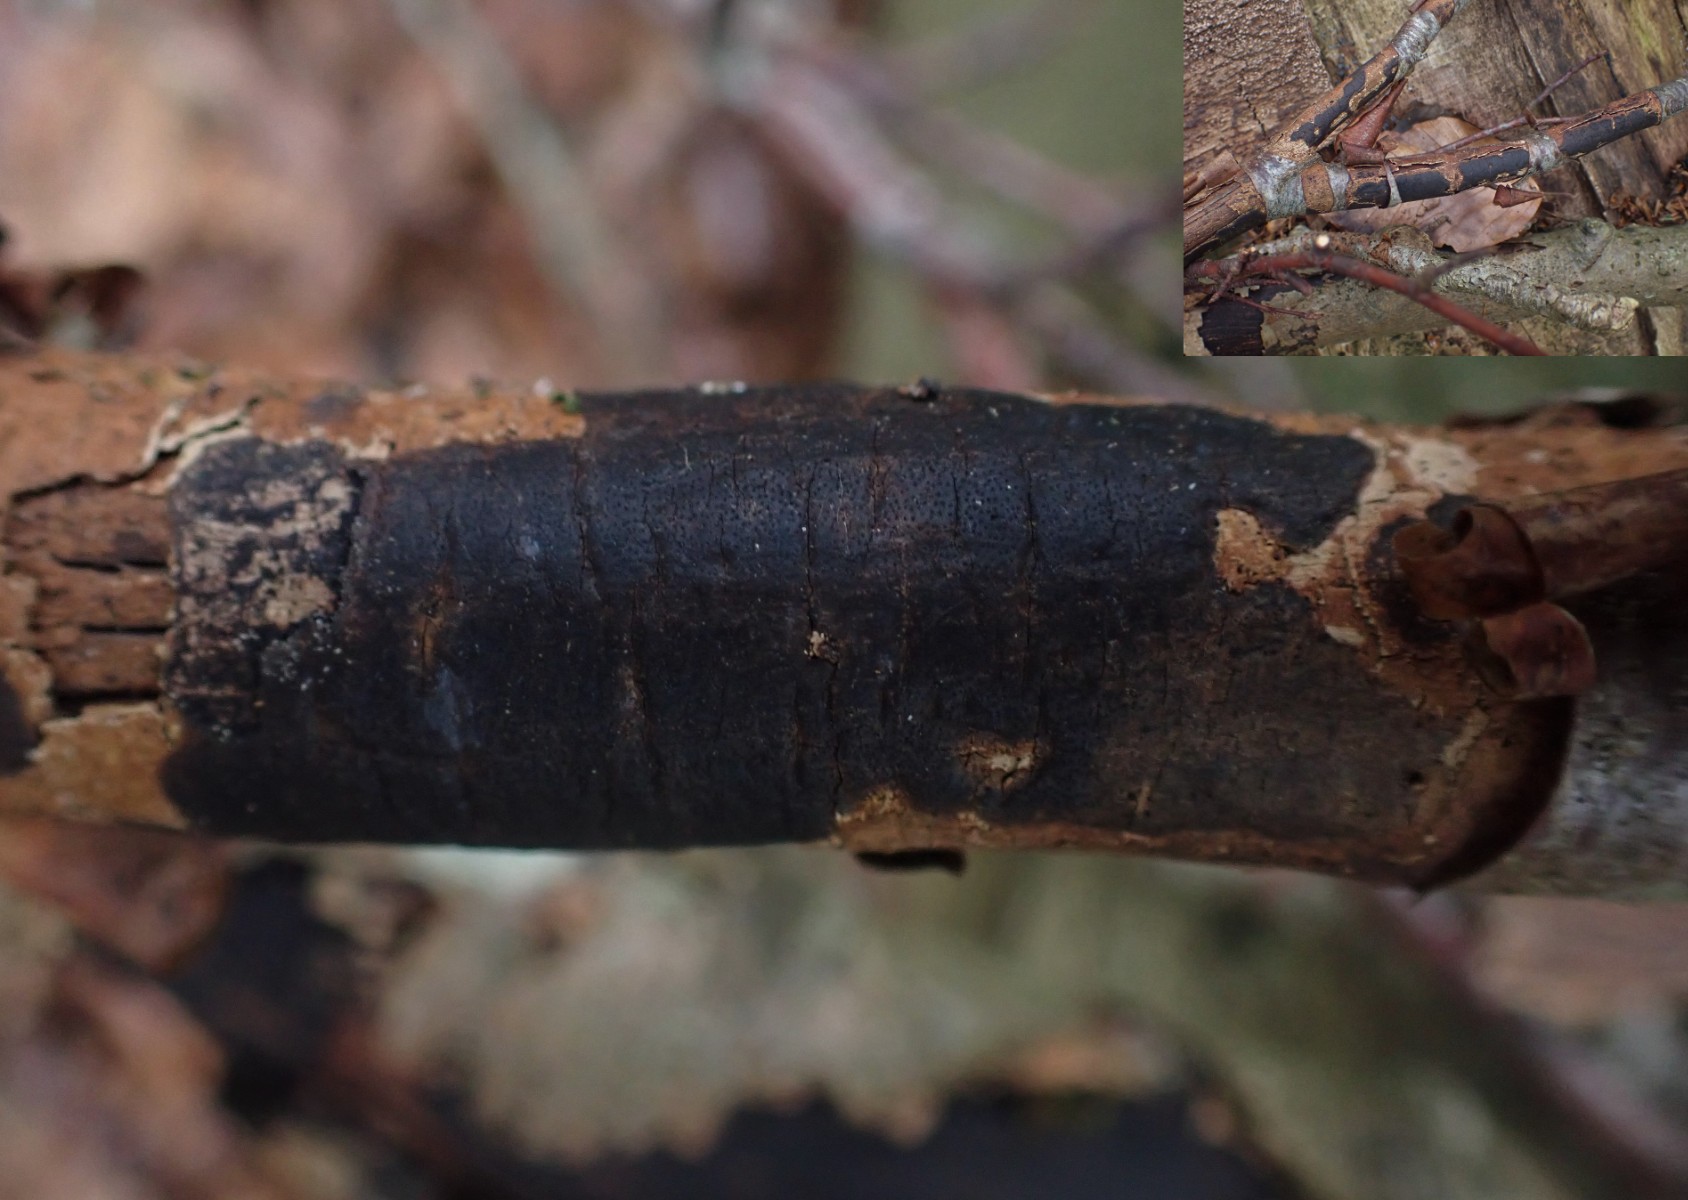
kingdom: Fungi
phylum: Ascomycota
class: Sordariomycetes
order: Xylariales
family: Diatrypaceae
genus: Diatrype
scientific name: Diatrype decorticata
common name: barksprænger-kulskorpe
